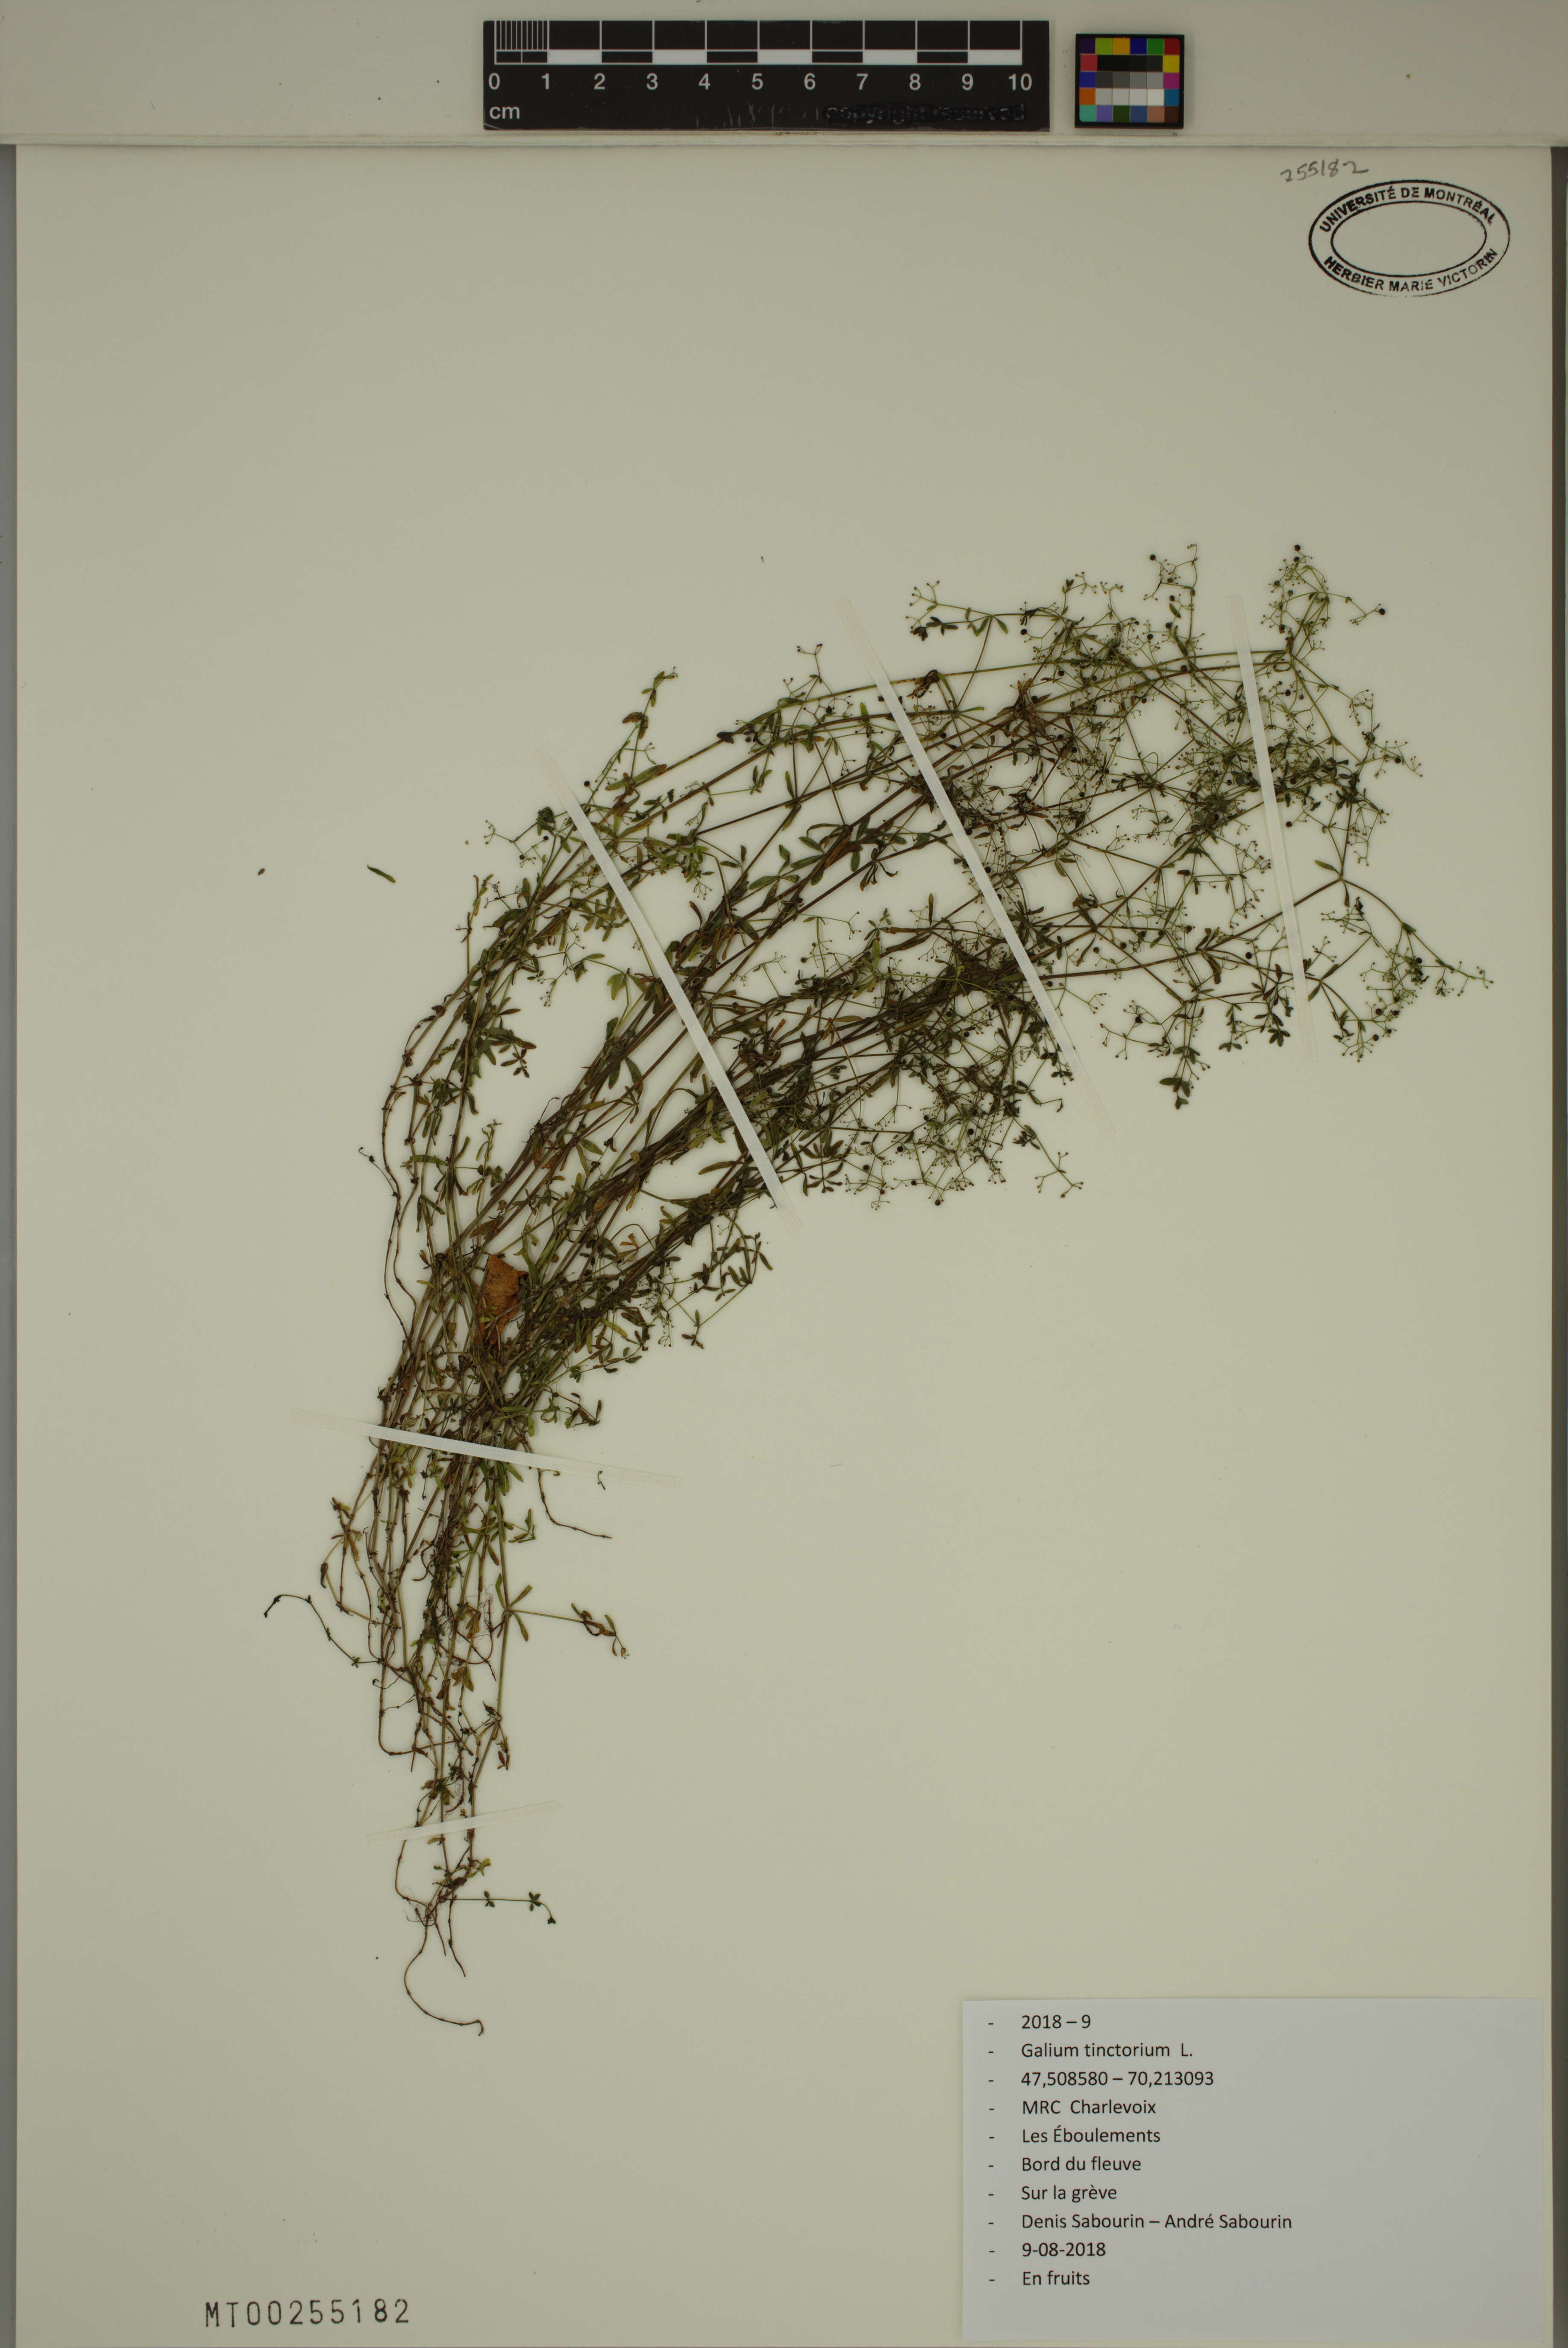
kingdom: Plantae
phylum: Tracheophyta
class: Magnoliopsida
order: Gentianales
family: Rubiaceae
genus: Galium
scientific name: Galium tinctorium
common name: Bedstraw
